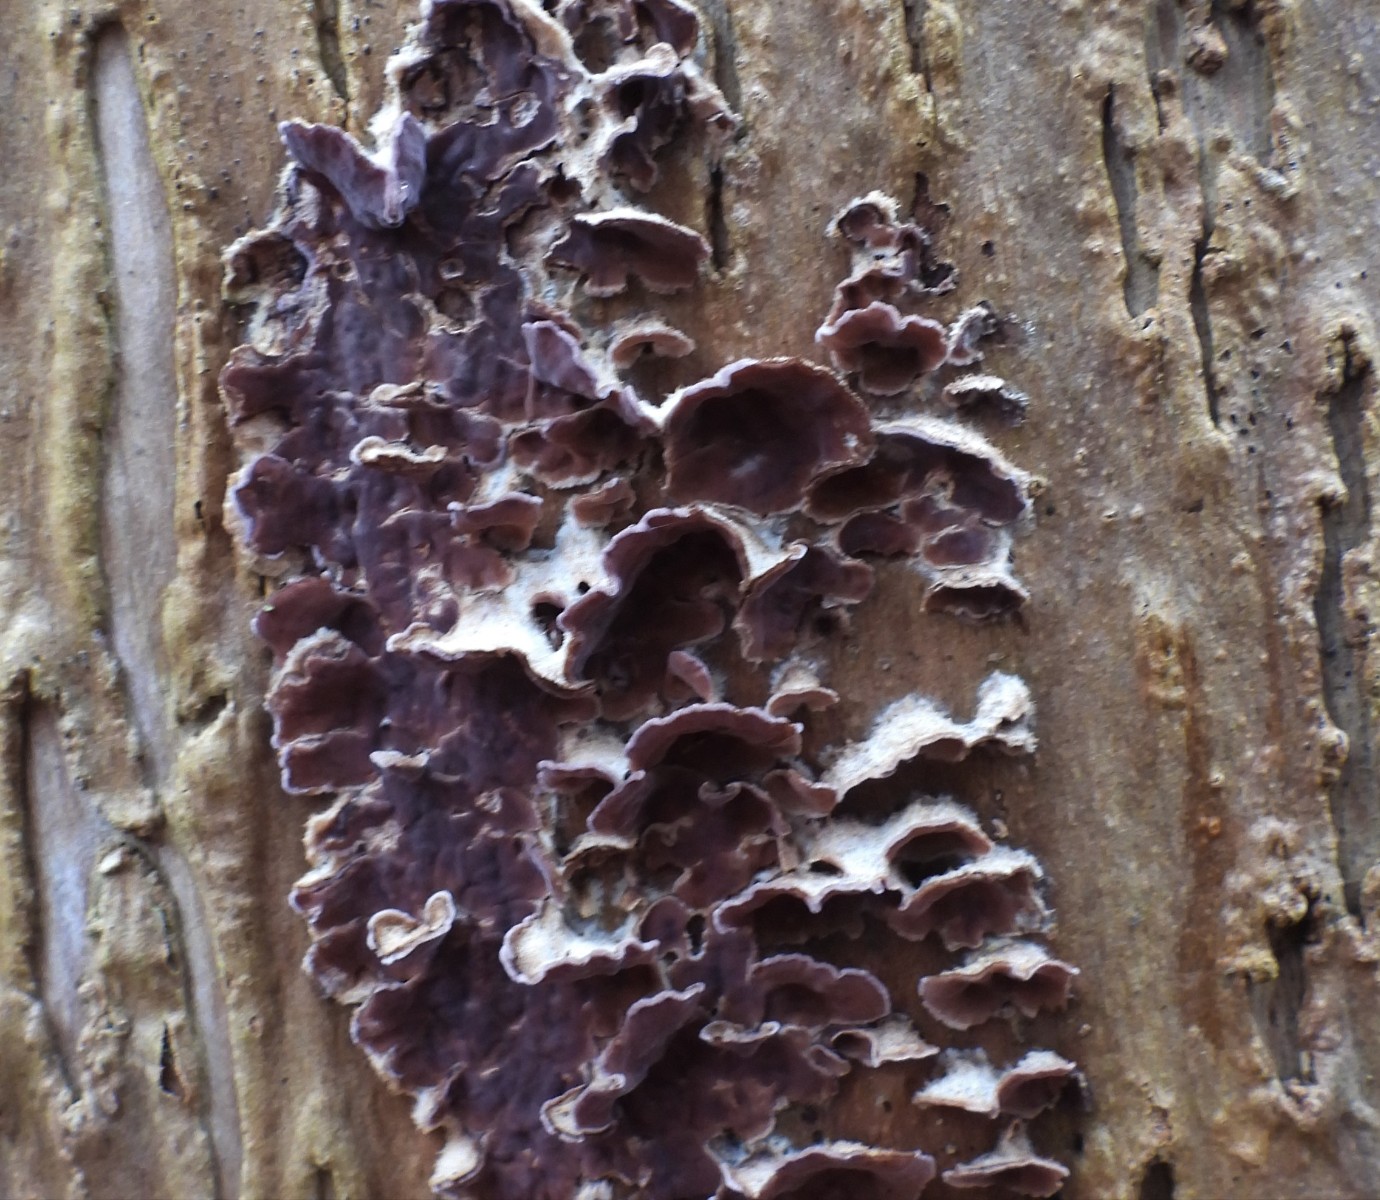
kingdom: Fungi
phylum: Basidiomycota
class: Agaricomycetes
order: Agaricales
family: Cyphellaceae
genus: Chondrostereum
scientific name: Chondrostereum purpureum
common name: purpurlædersvamp
